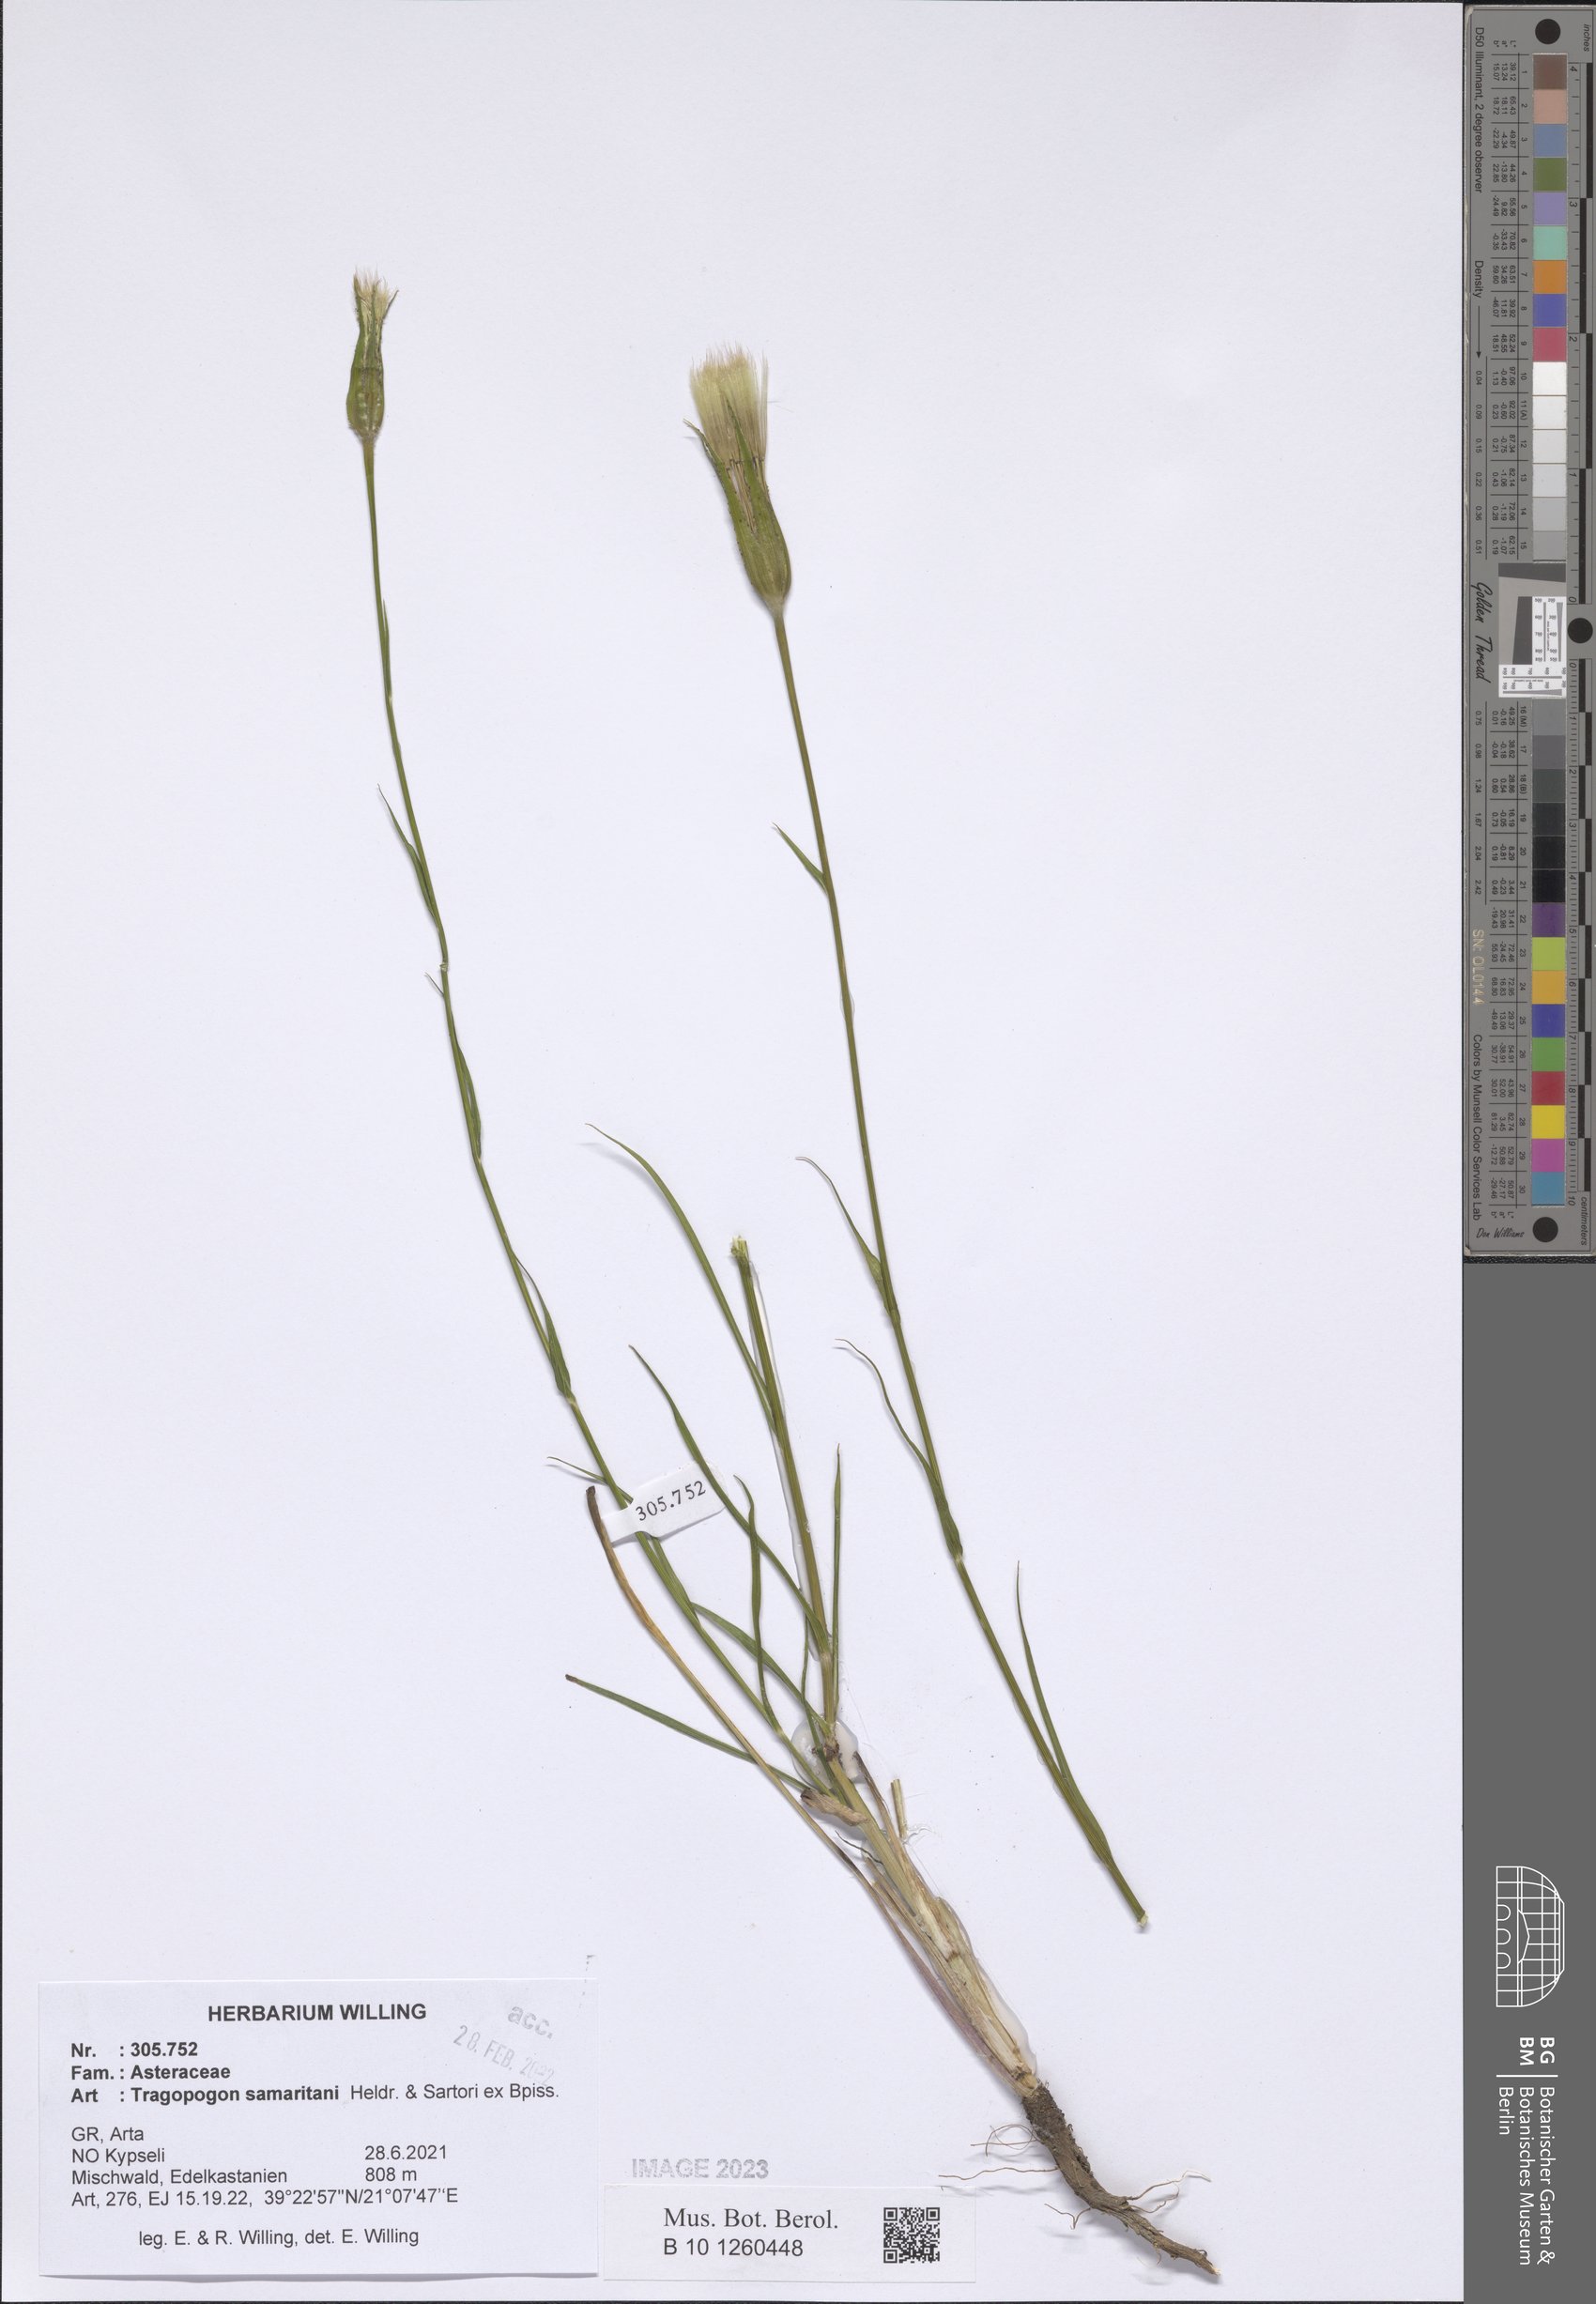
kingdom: Plantae
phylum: Tracheophyta
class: Magnoliopsida
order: Asterales
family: Asteraceae
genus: Tragopogon
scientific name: Tragopogon samaritani
